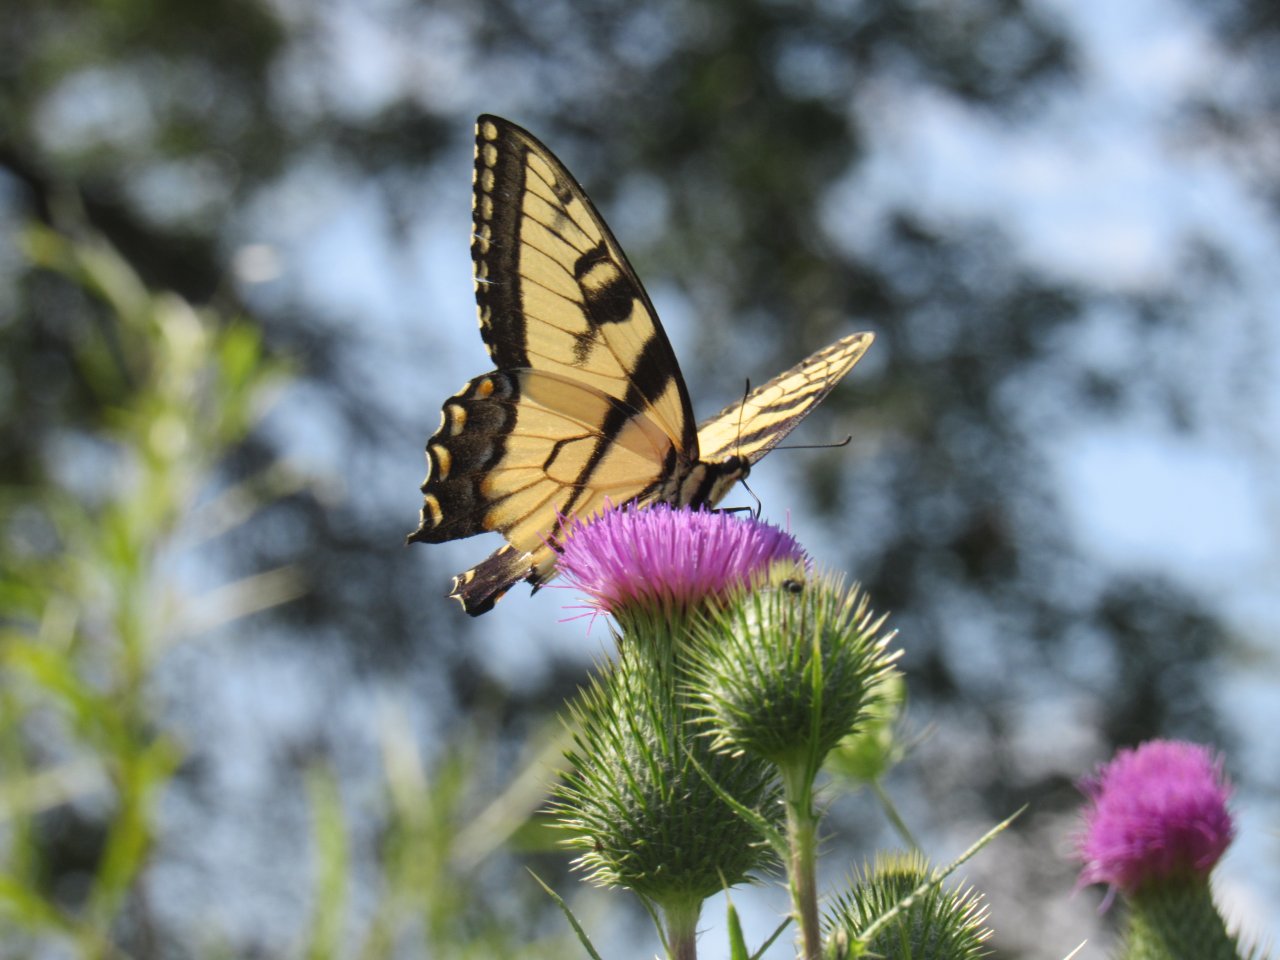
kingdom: Animalia
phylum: Arthropoda
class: Insecta
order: Lepidoptera
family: Papilionidae
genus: Pterourus
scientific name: Pterourus glaucus
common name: Eastern Tiger Swallowtail
